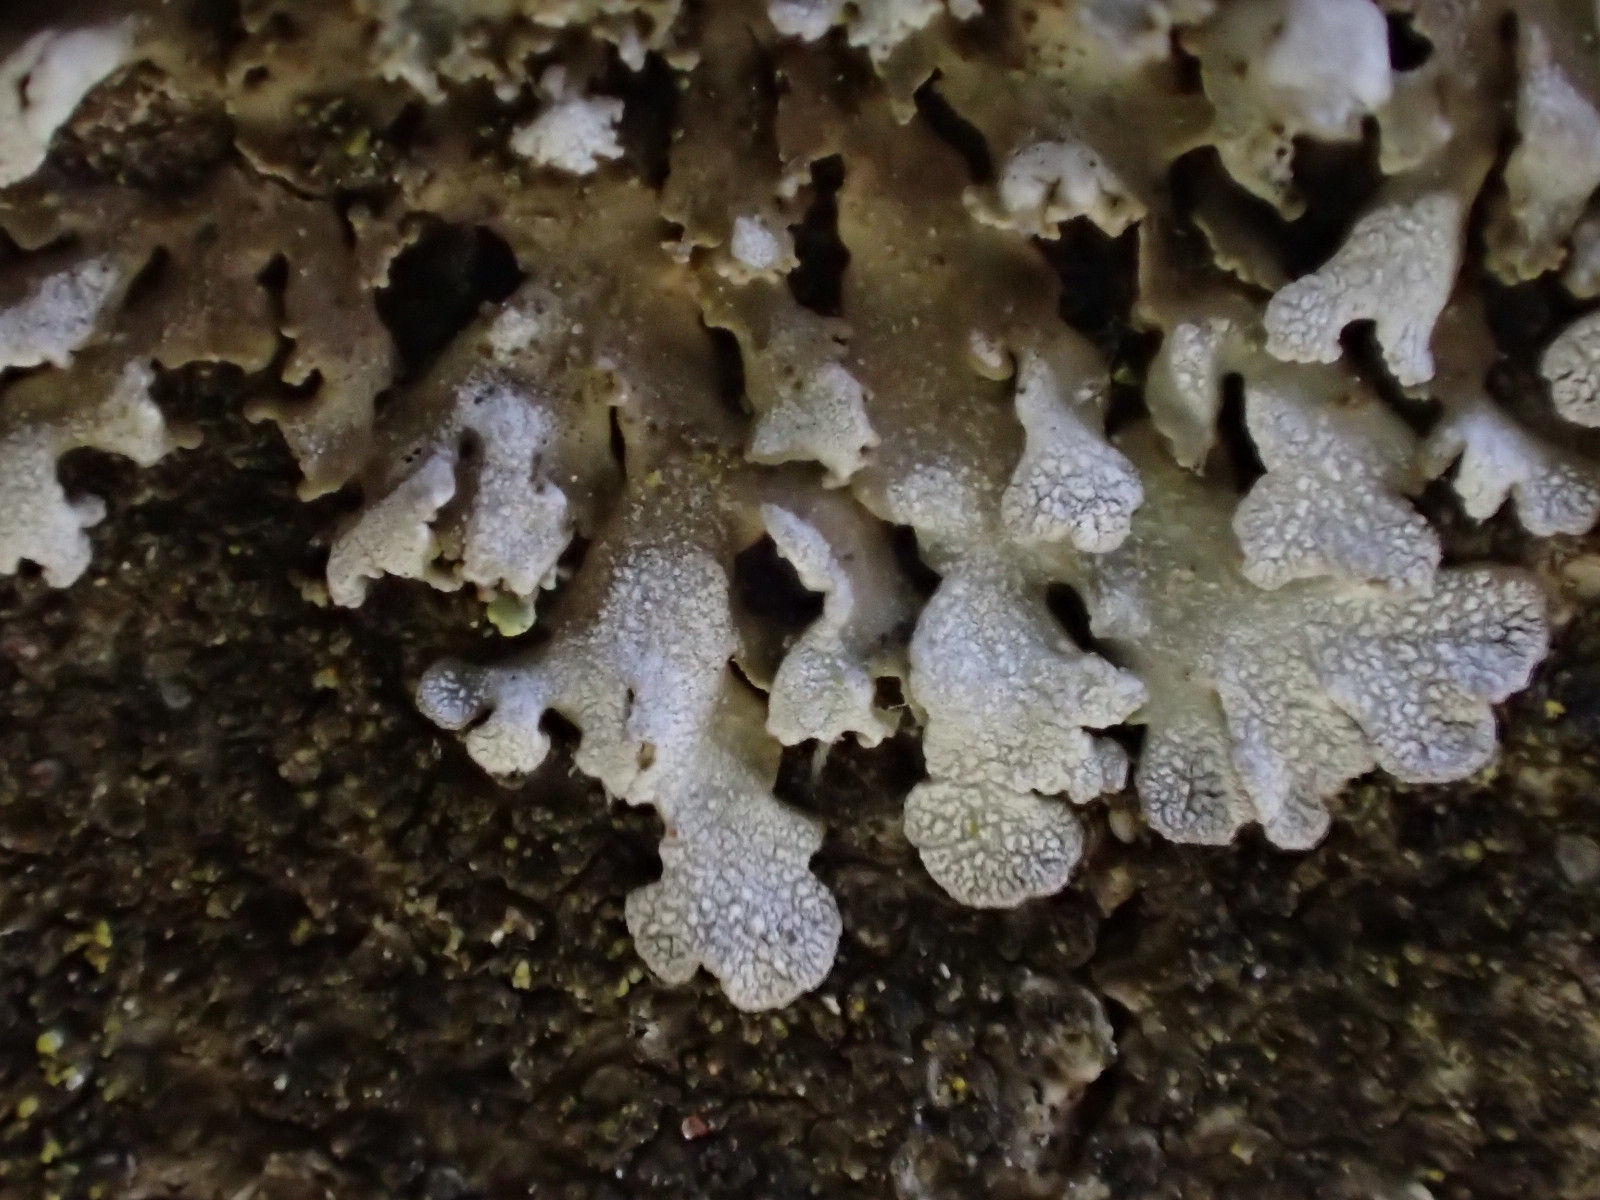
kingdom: Fungi
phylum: Ascomycota
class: Lecanoromycetes
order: Caliciales
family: Physciaceae
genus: Physconia
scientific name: Physconia perisidiosa
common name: liden dugrosetlav
